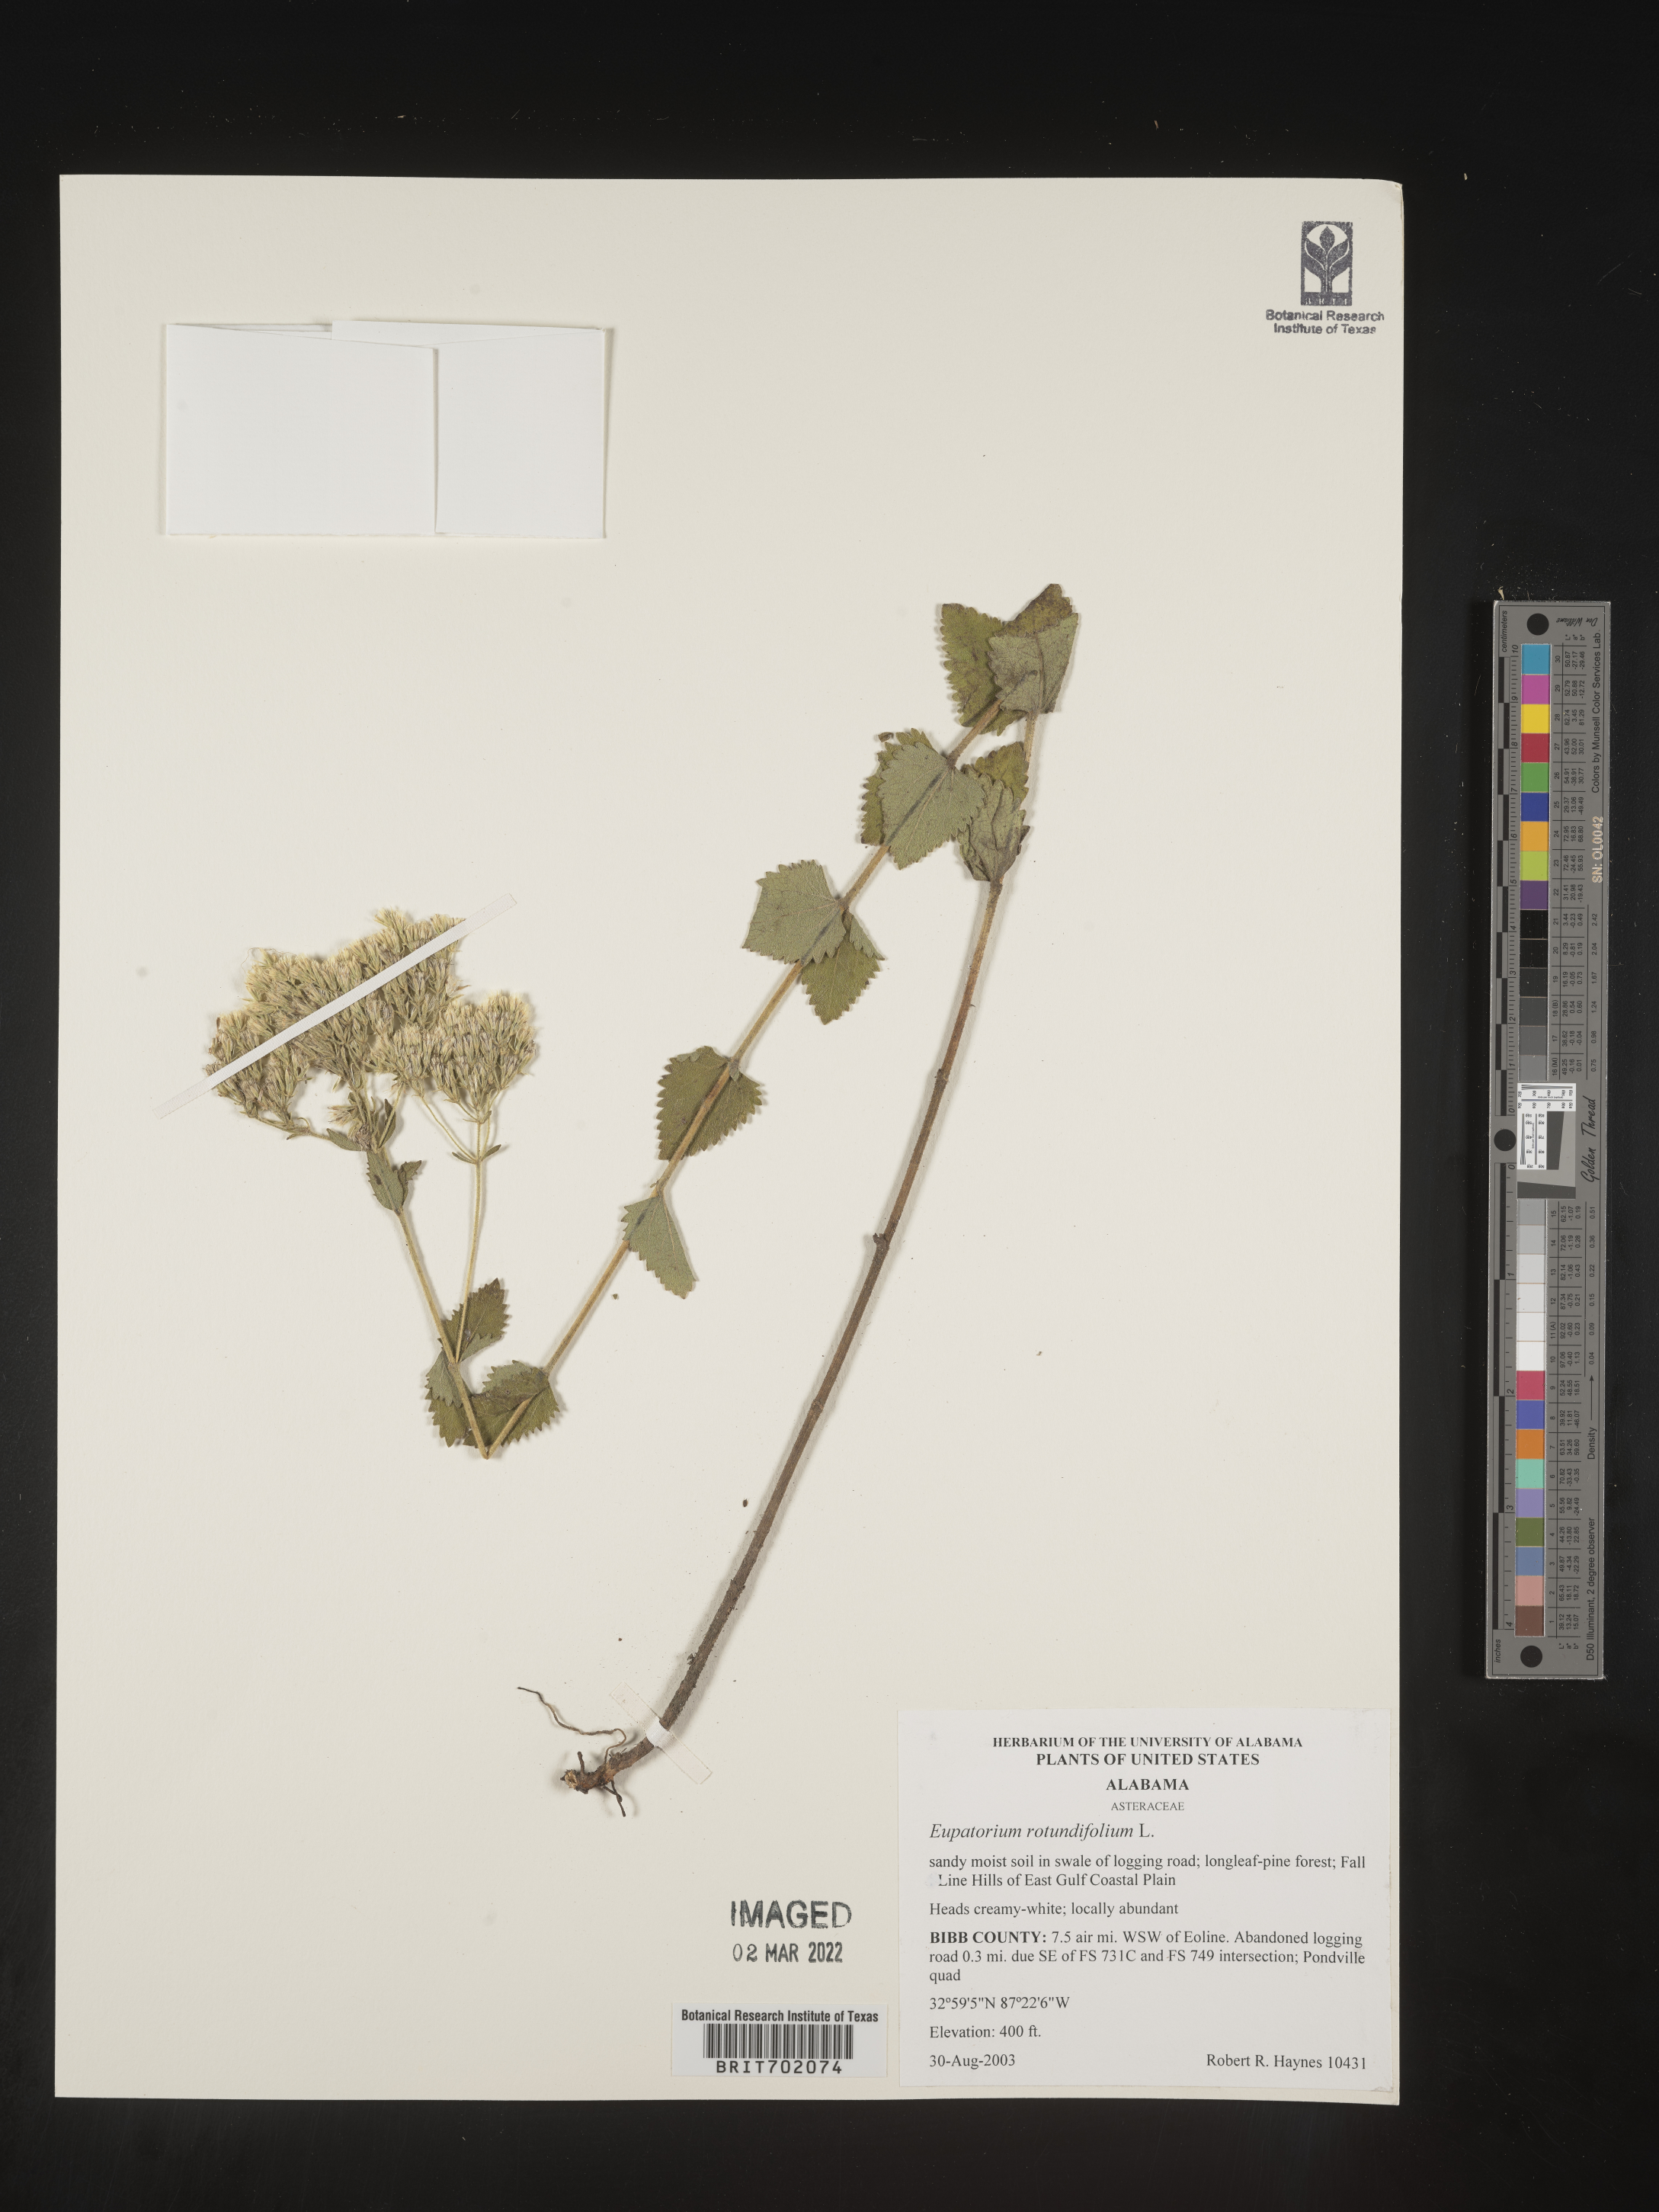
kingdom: Plantae
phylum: Tracheophyta
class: Magnoliopsida
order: Asterales
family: Asteraceae
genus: Eupatorium
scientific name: Eupatorium rotundifolium
